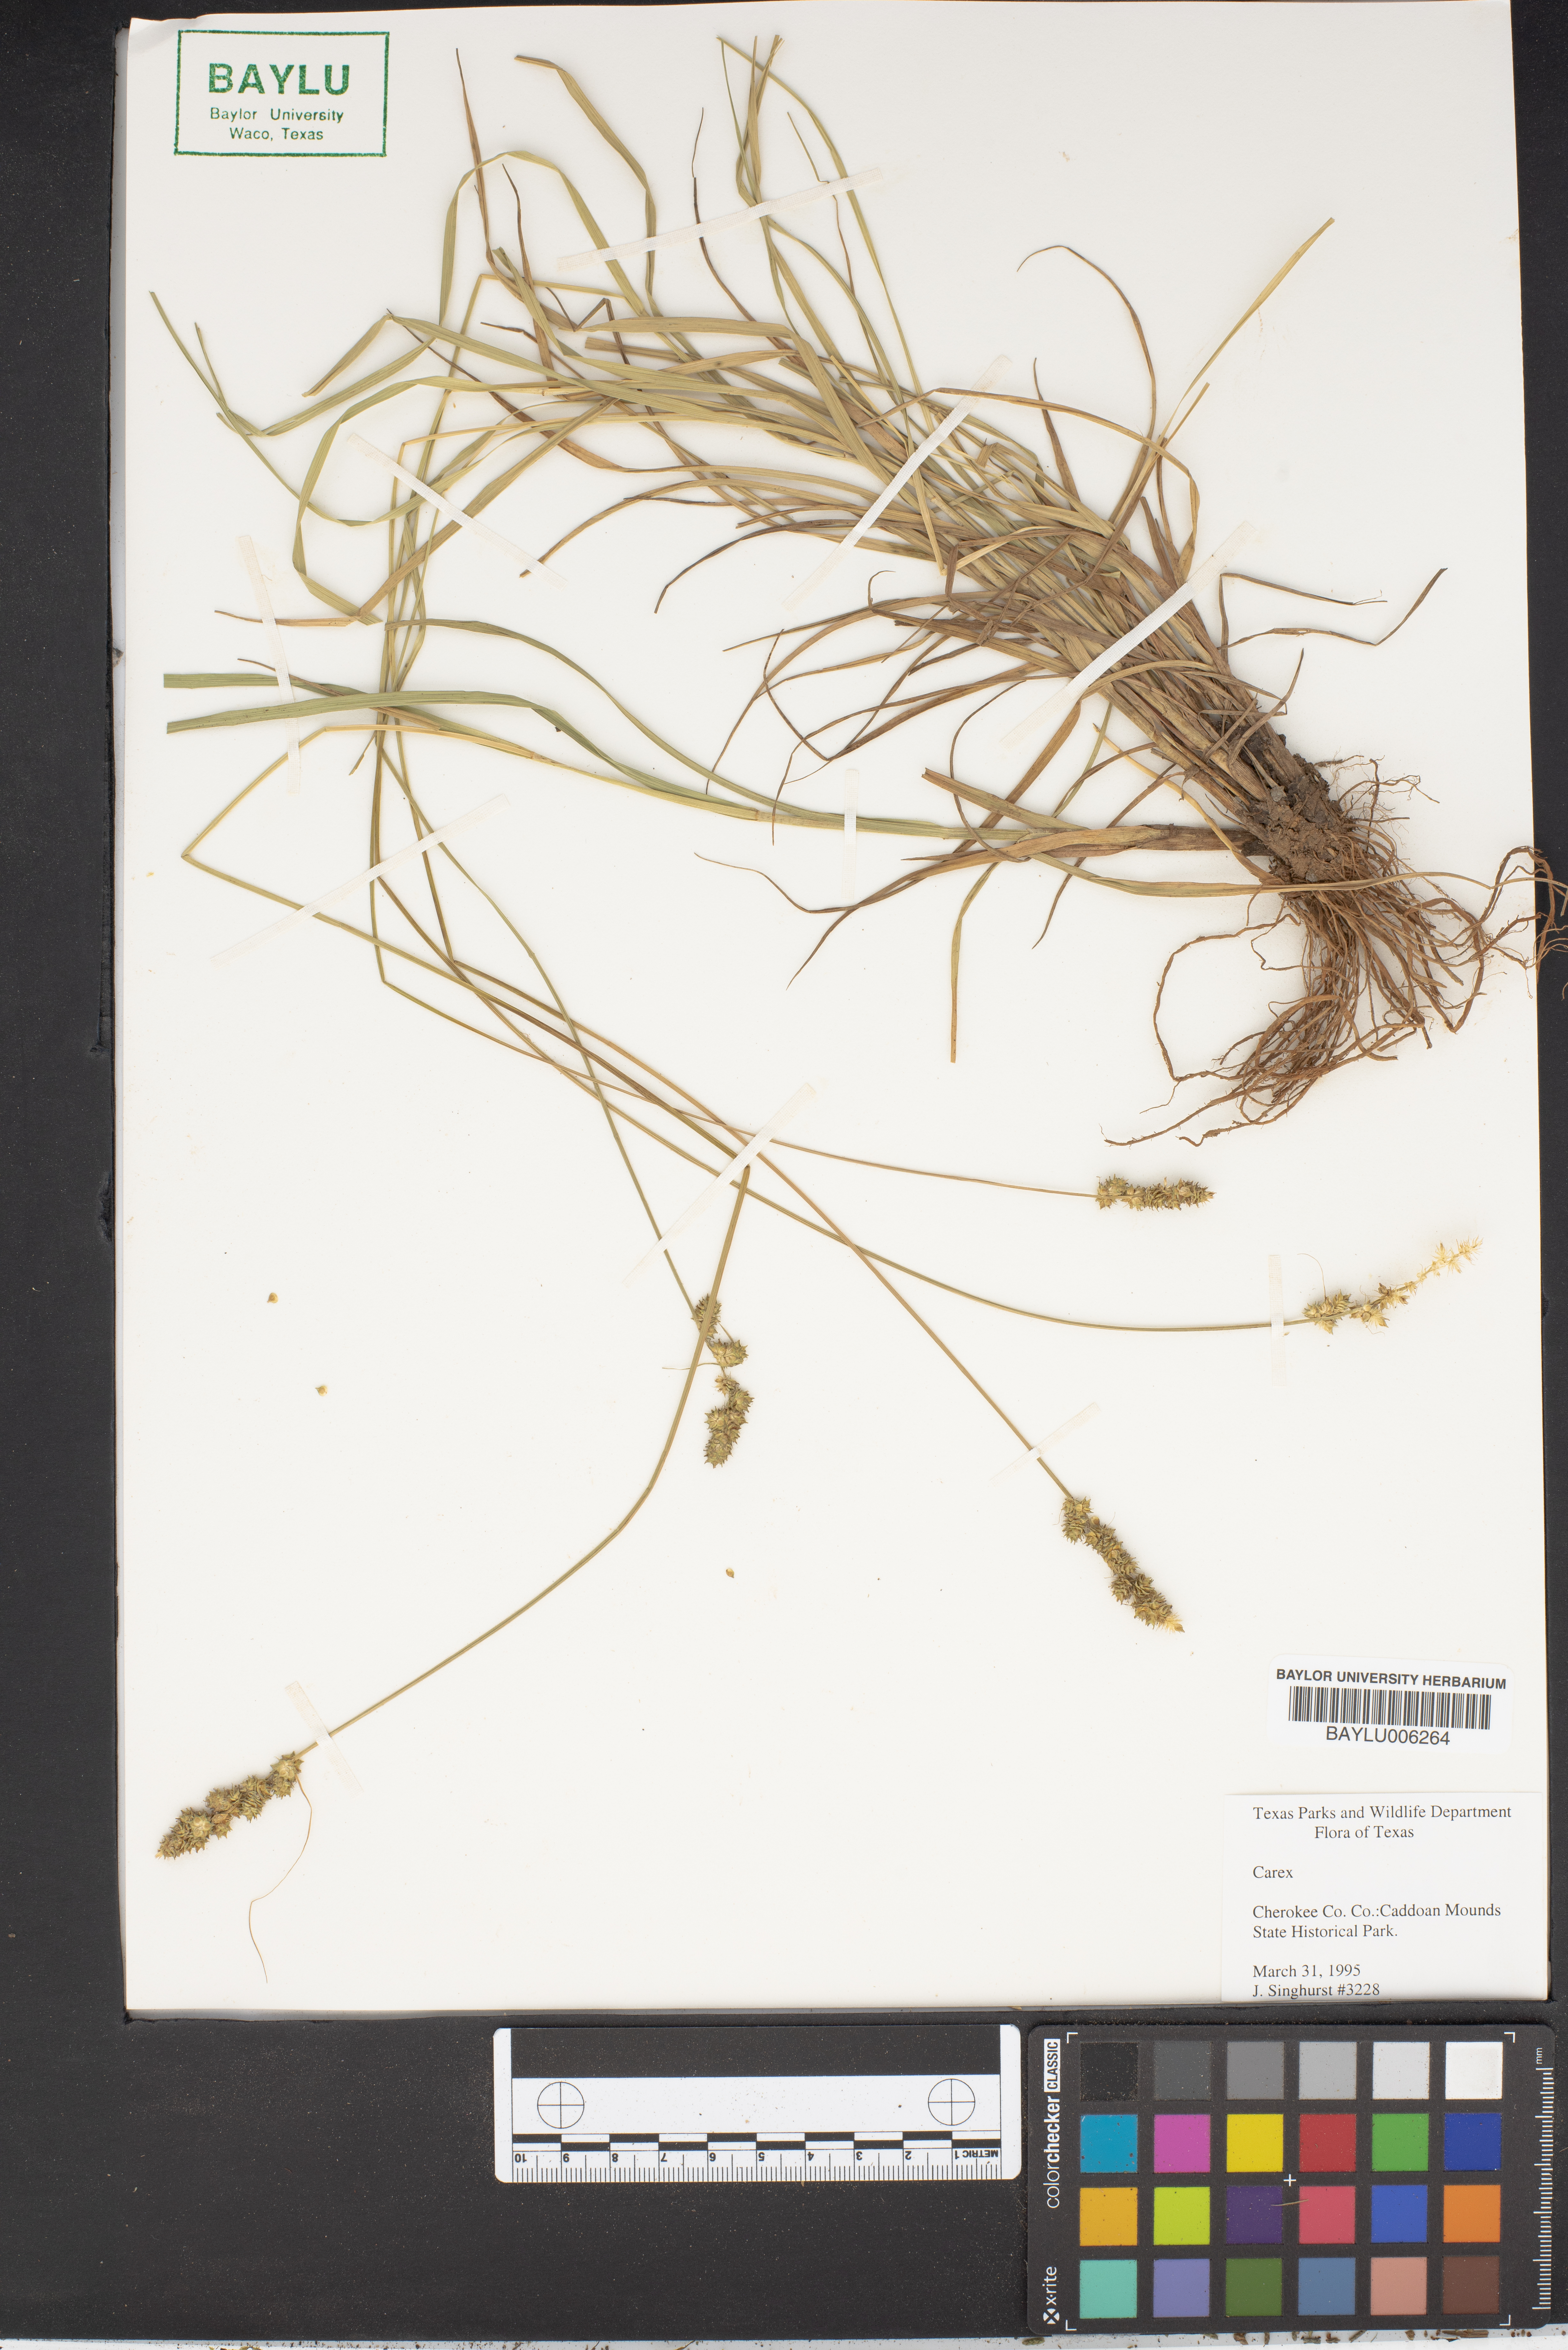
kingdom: Plantae
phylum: Tracheophyta
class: Liliopsida
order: Poales
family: Cyperaceae
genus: Carex
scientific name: Carex
